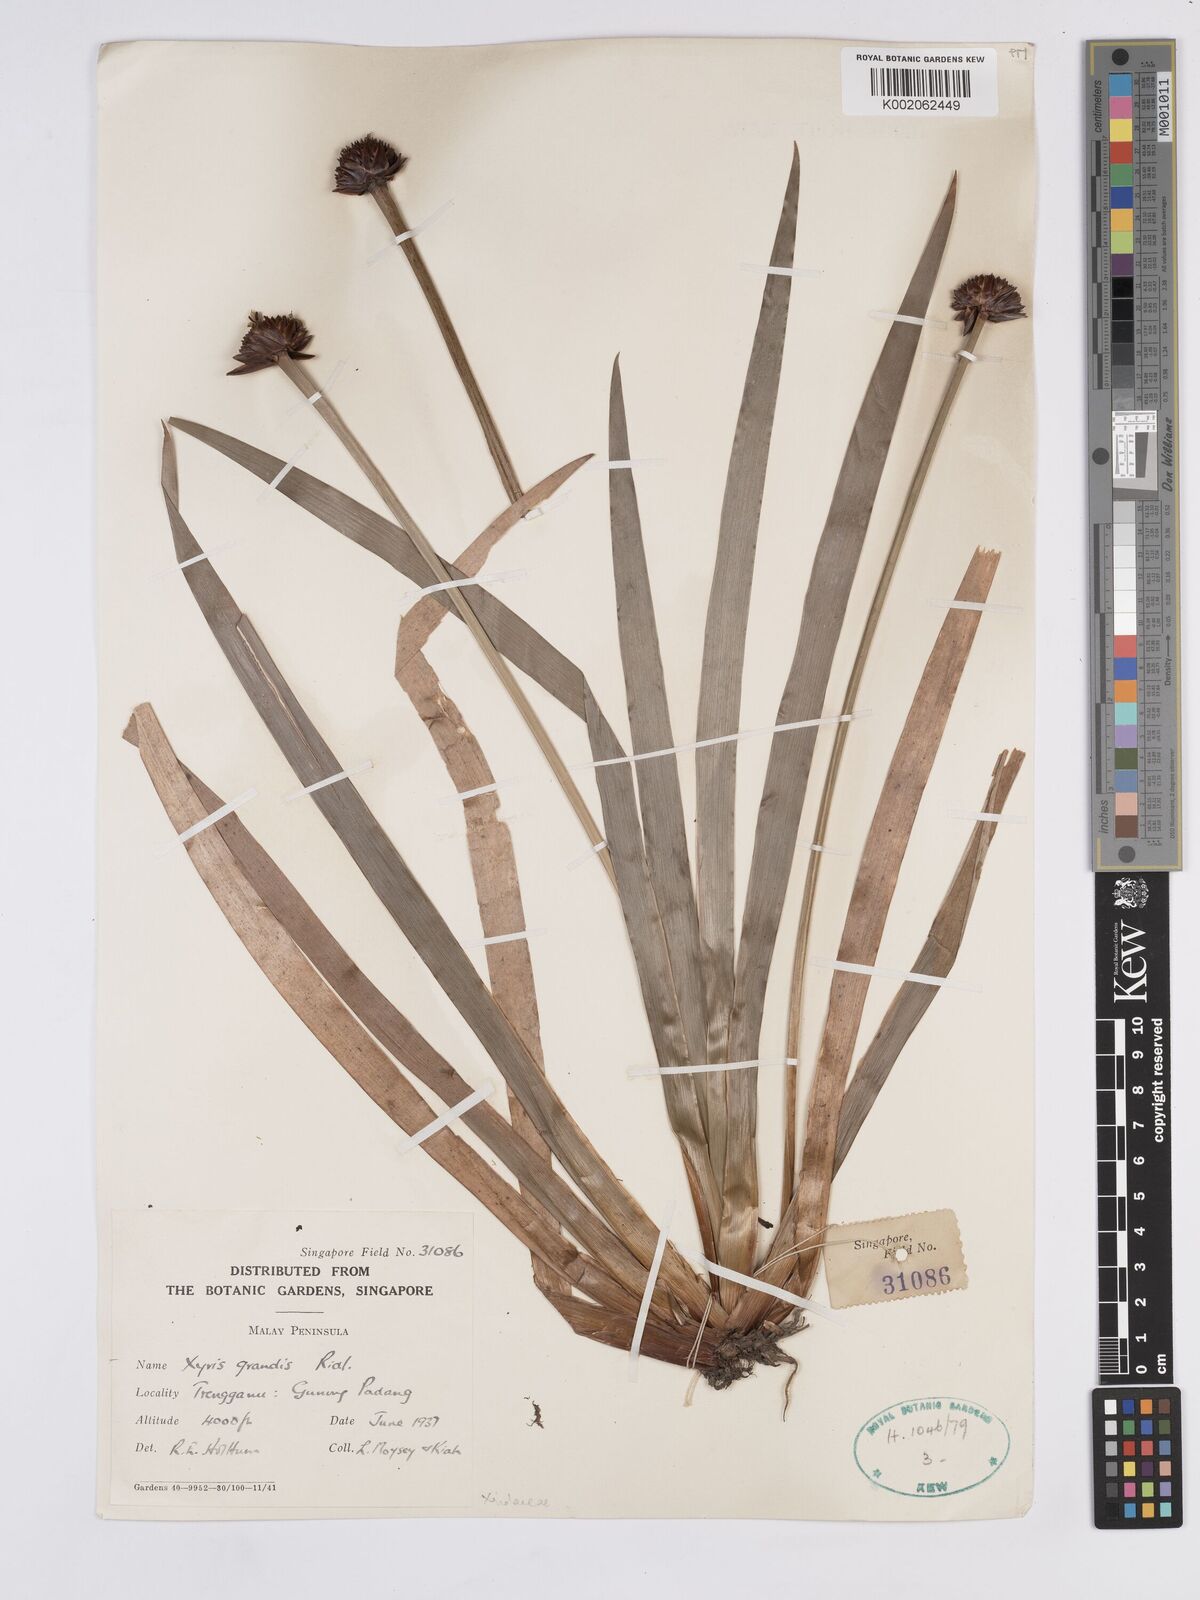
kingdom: Plantae
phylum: Tracheophyta
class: Liliopsida
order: Poales
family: Xyridaceae
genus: Xyris
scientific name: Xyris grandis
